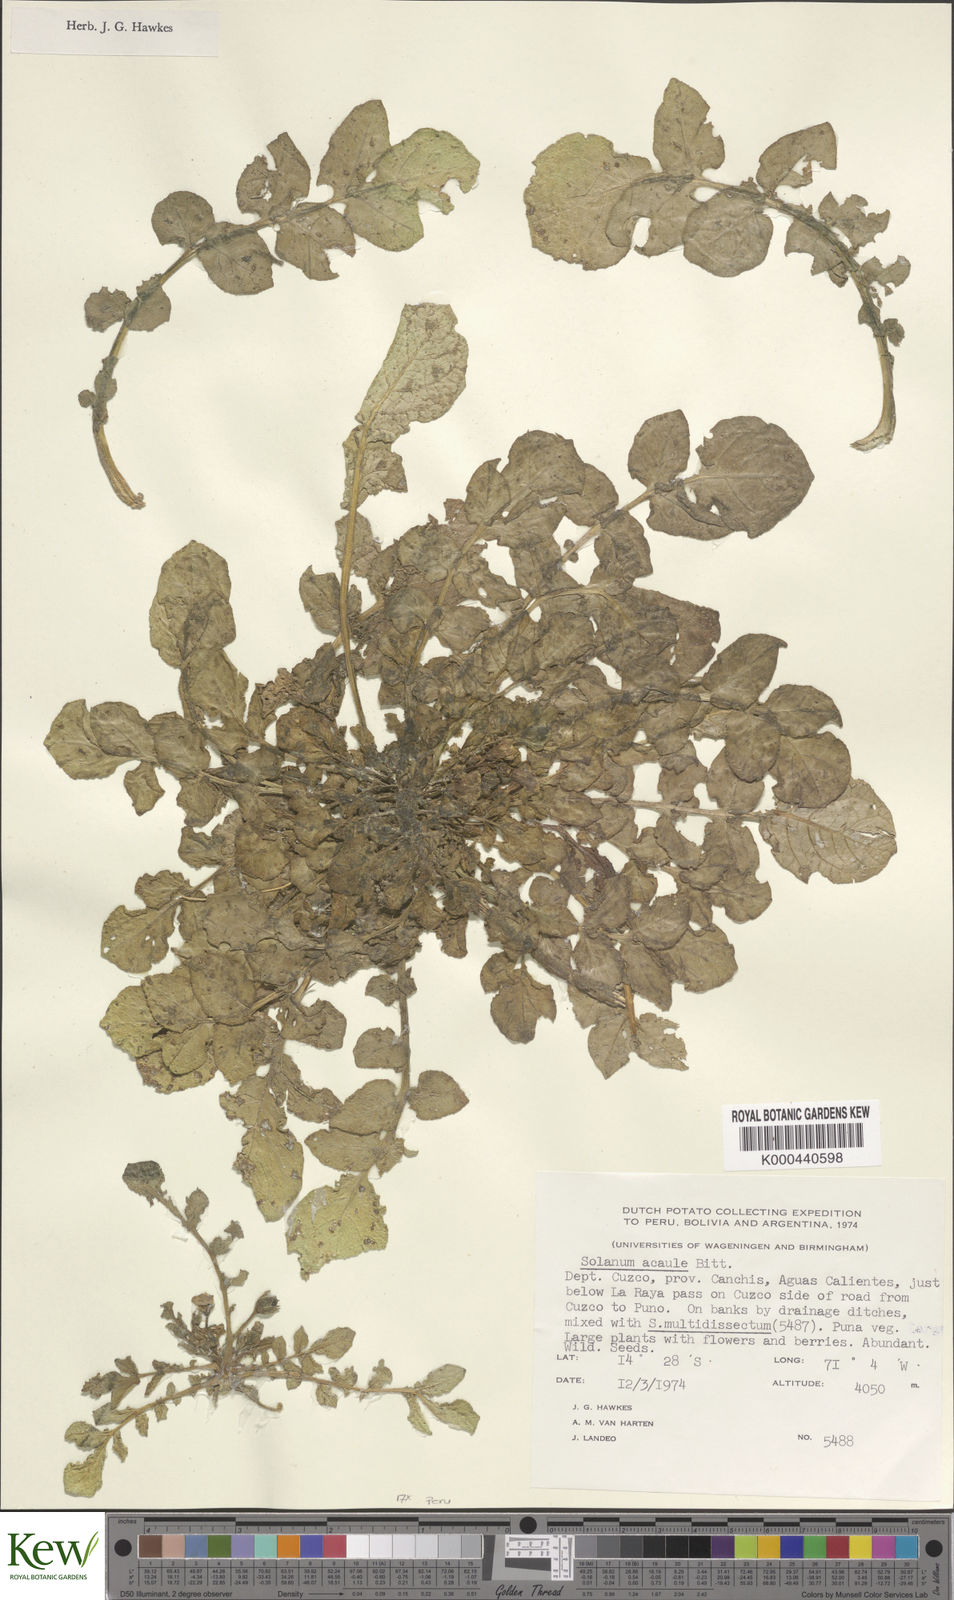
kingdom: Plantae
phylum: Tracheophyta
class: Magnoliopsida
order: Solanales
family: Solanaceae
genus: Solanum
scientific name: Solanum acaule
